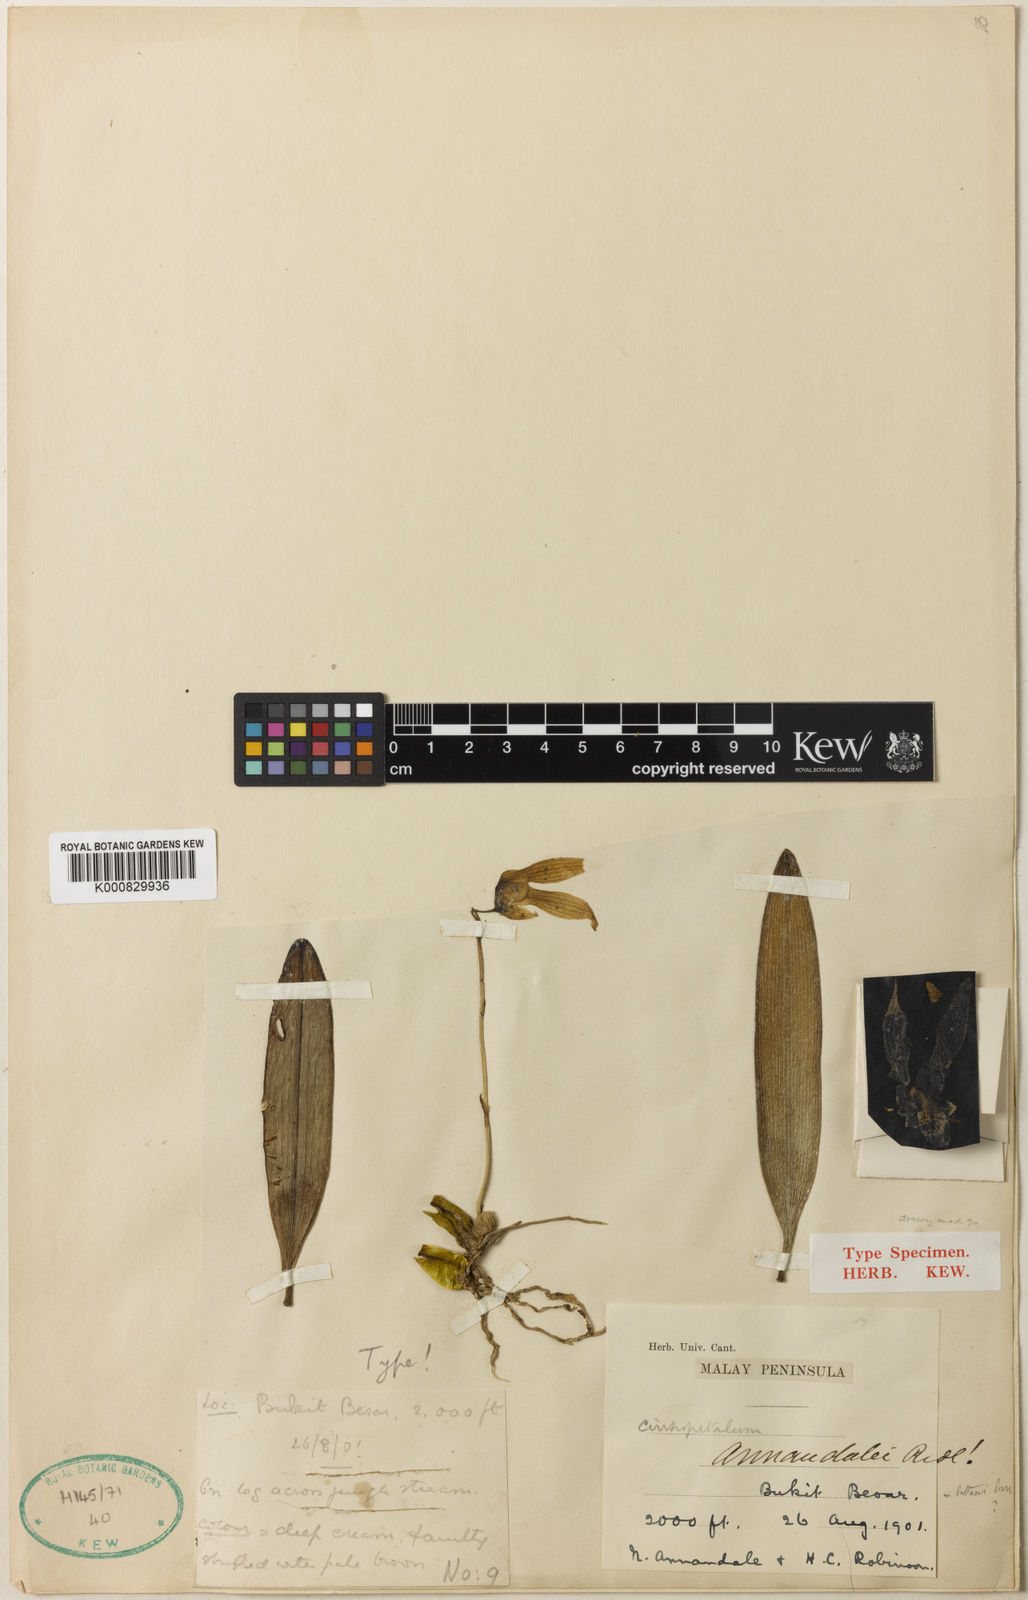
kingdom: Plantae
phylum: Tracheophyta
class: Liliopsida
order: Asparagales
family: Orchidaceae
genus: Bulbophyllum
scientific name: Bulbophyllum annandalei
